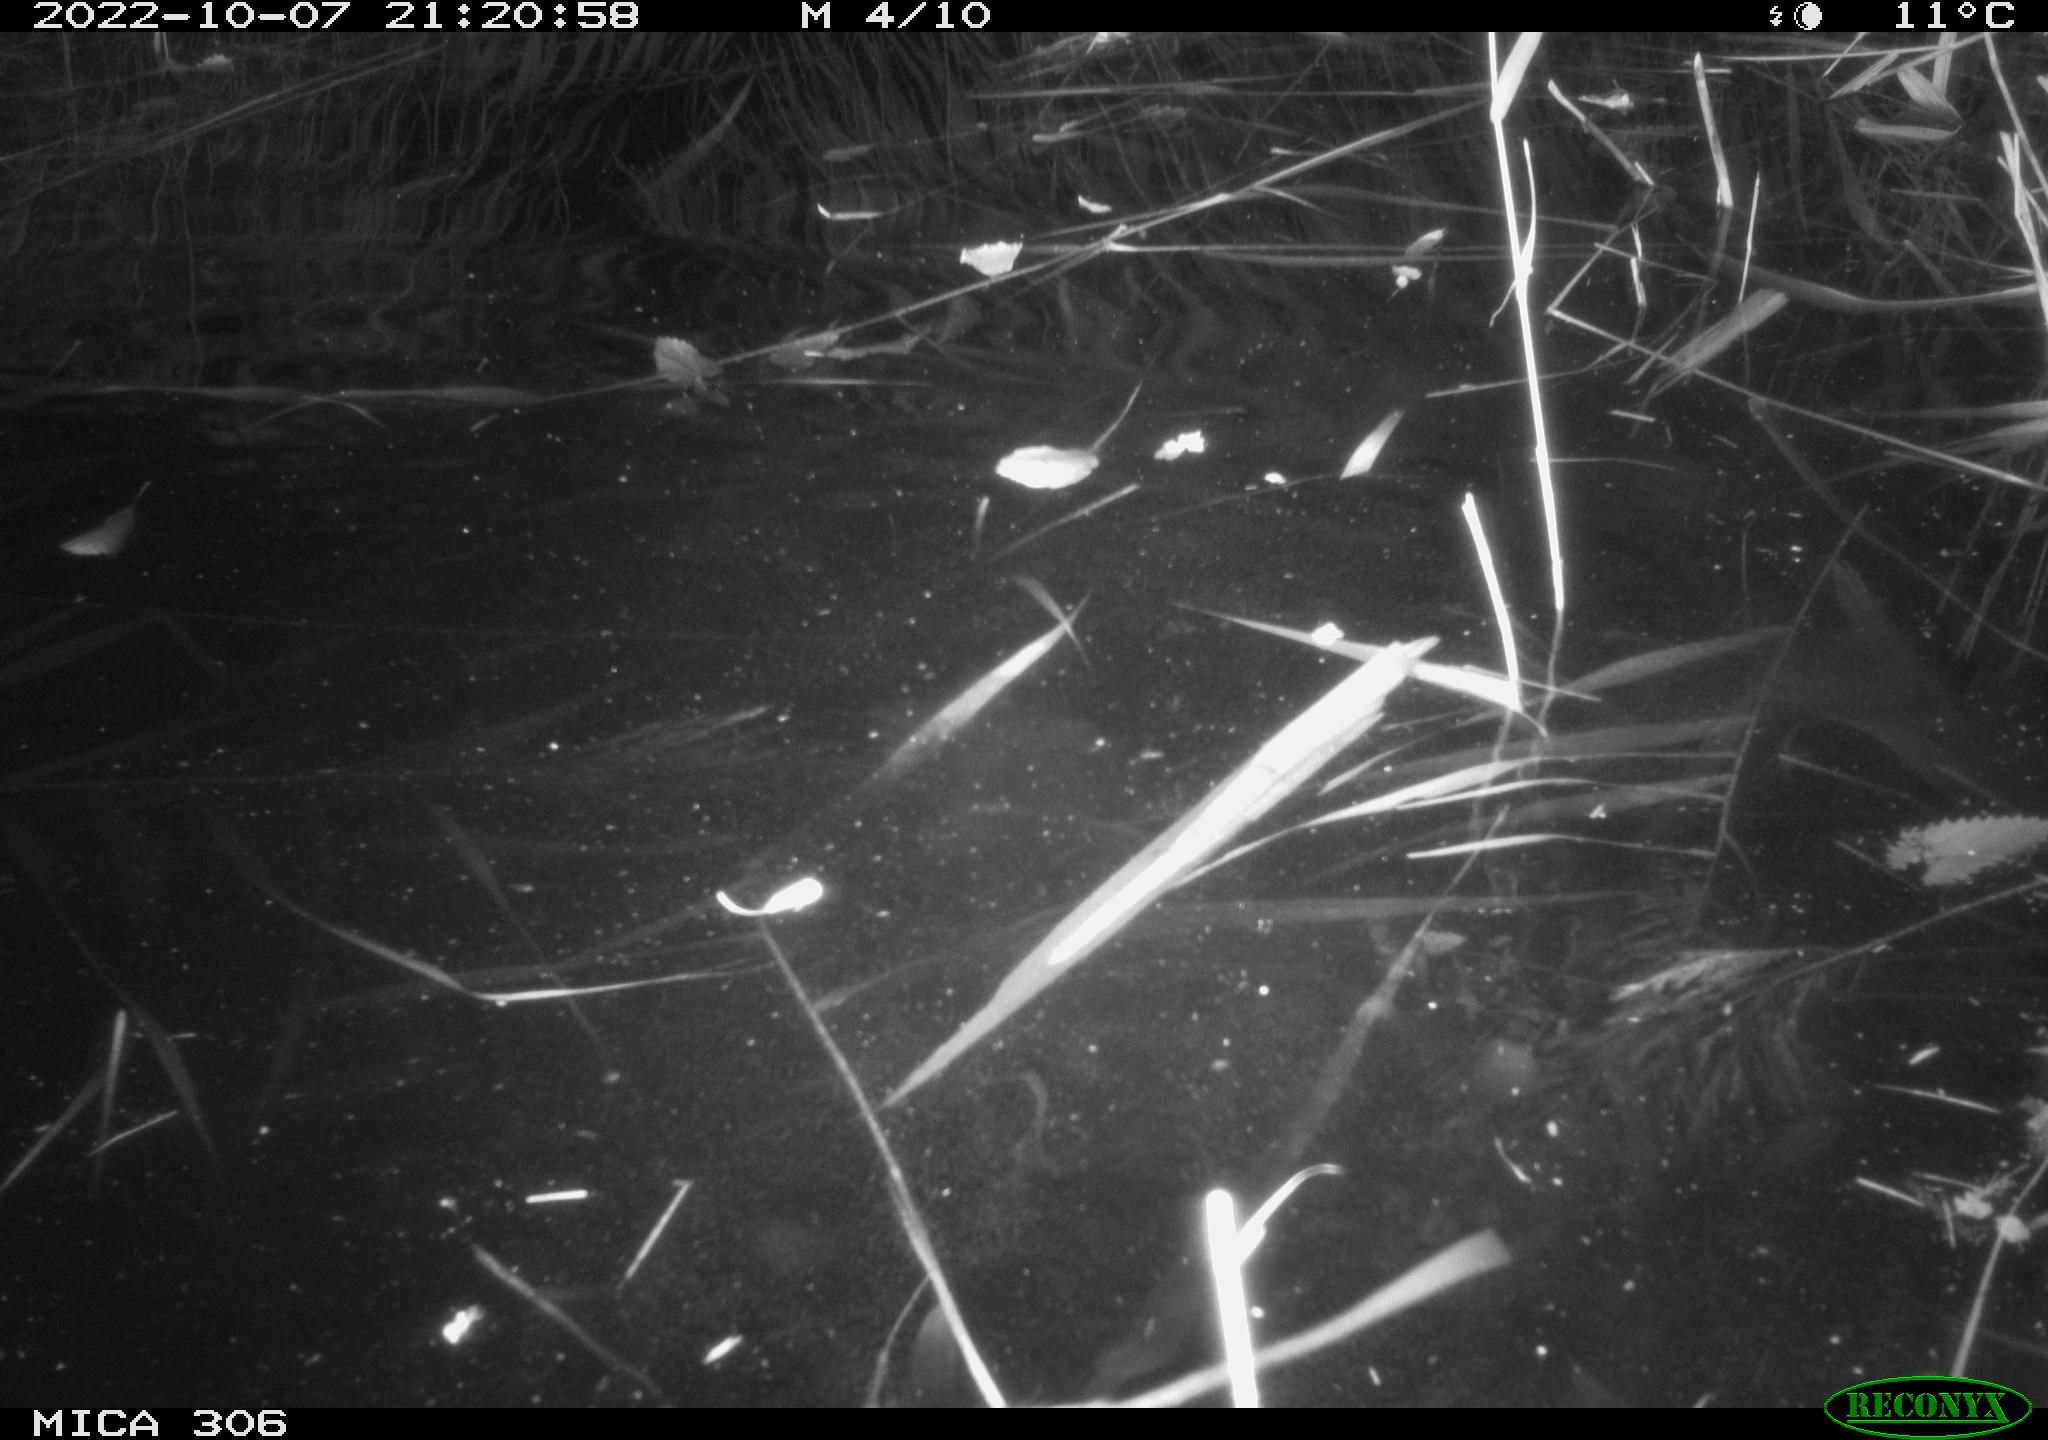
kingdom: Animalia
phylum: Chordata
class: Mammalia
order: Rodentia
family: Muridae
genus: Rattus
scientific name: Rattus norvegicus
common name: Brown rat
